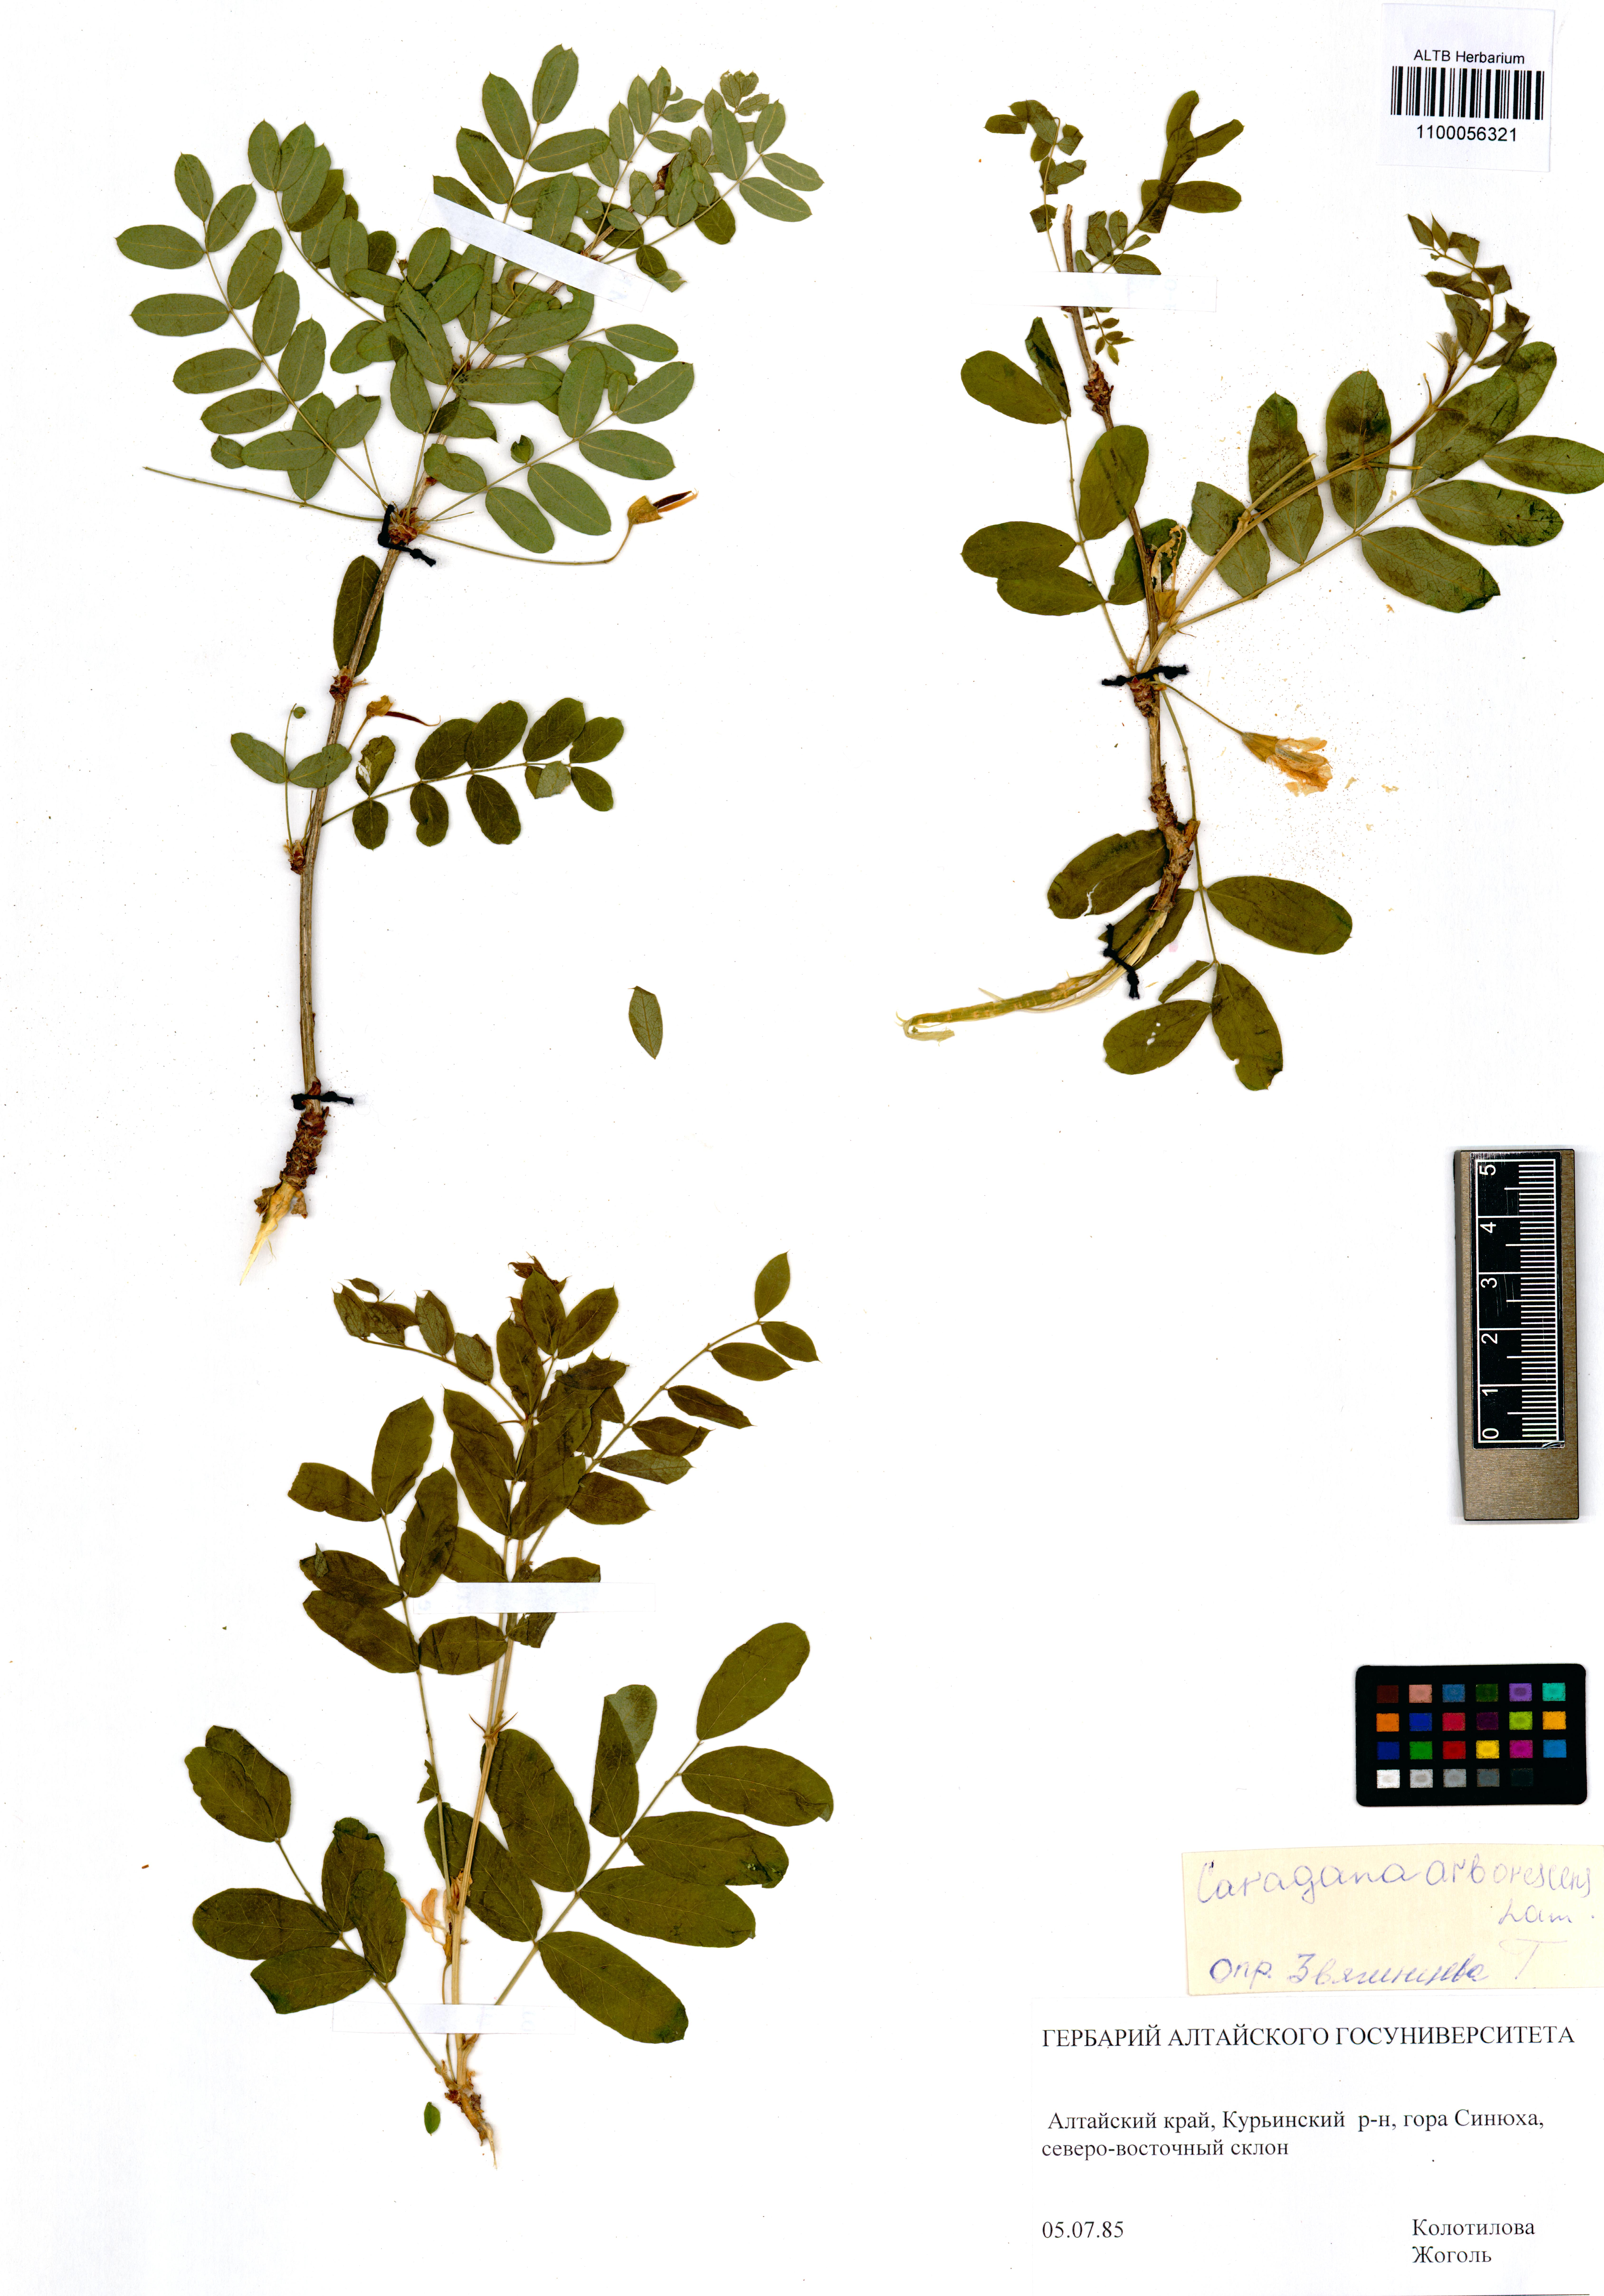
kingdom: Plantae
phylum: Tracheophyta
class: Magnoliopsida
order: Fabales
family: Fabaceae
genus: Caragana
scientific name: Caragana arborescens
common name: Siberian peashrub
